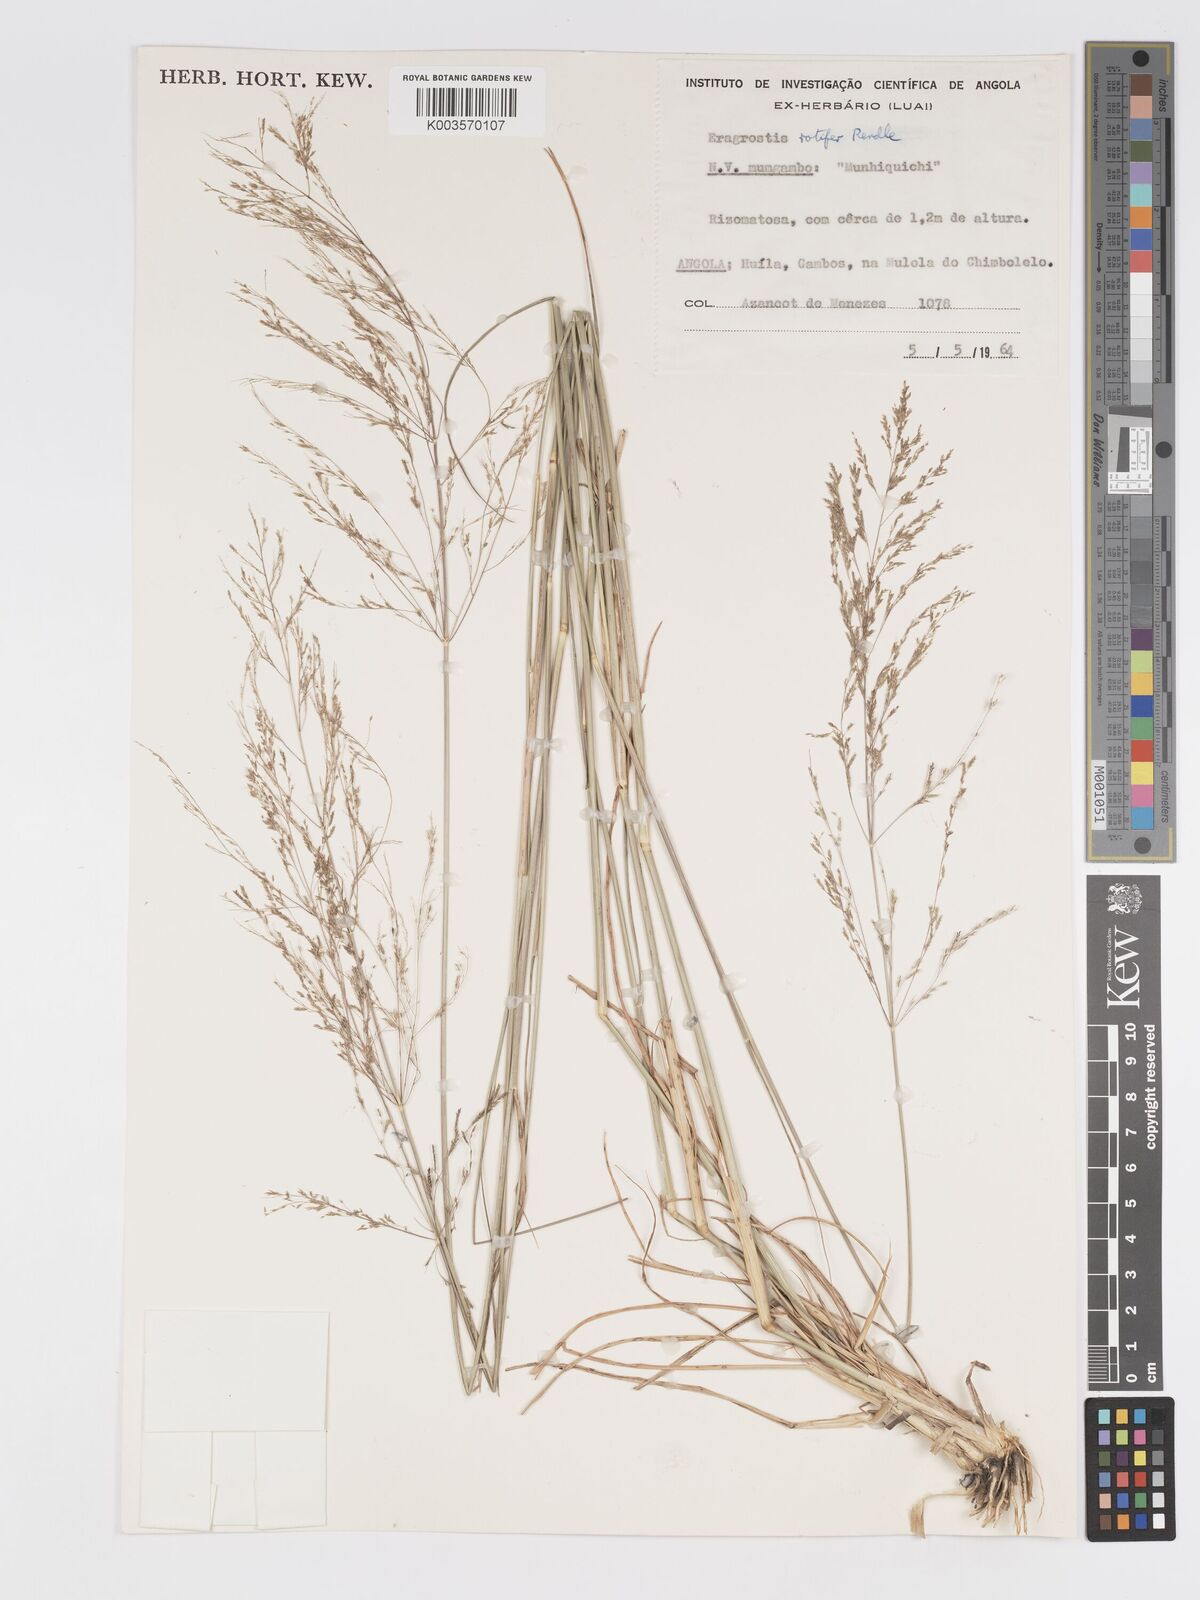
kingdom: Plantae
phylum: Tracheophyta
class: Liliopsida
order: Poales
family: Poaceae
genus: Eragrostis
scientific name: Eragrostis rotifer
